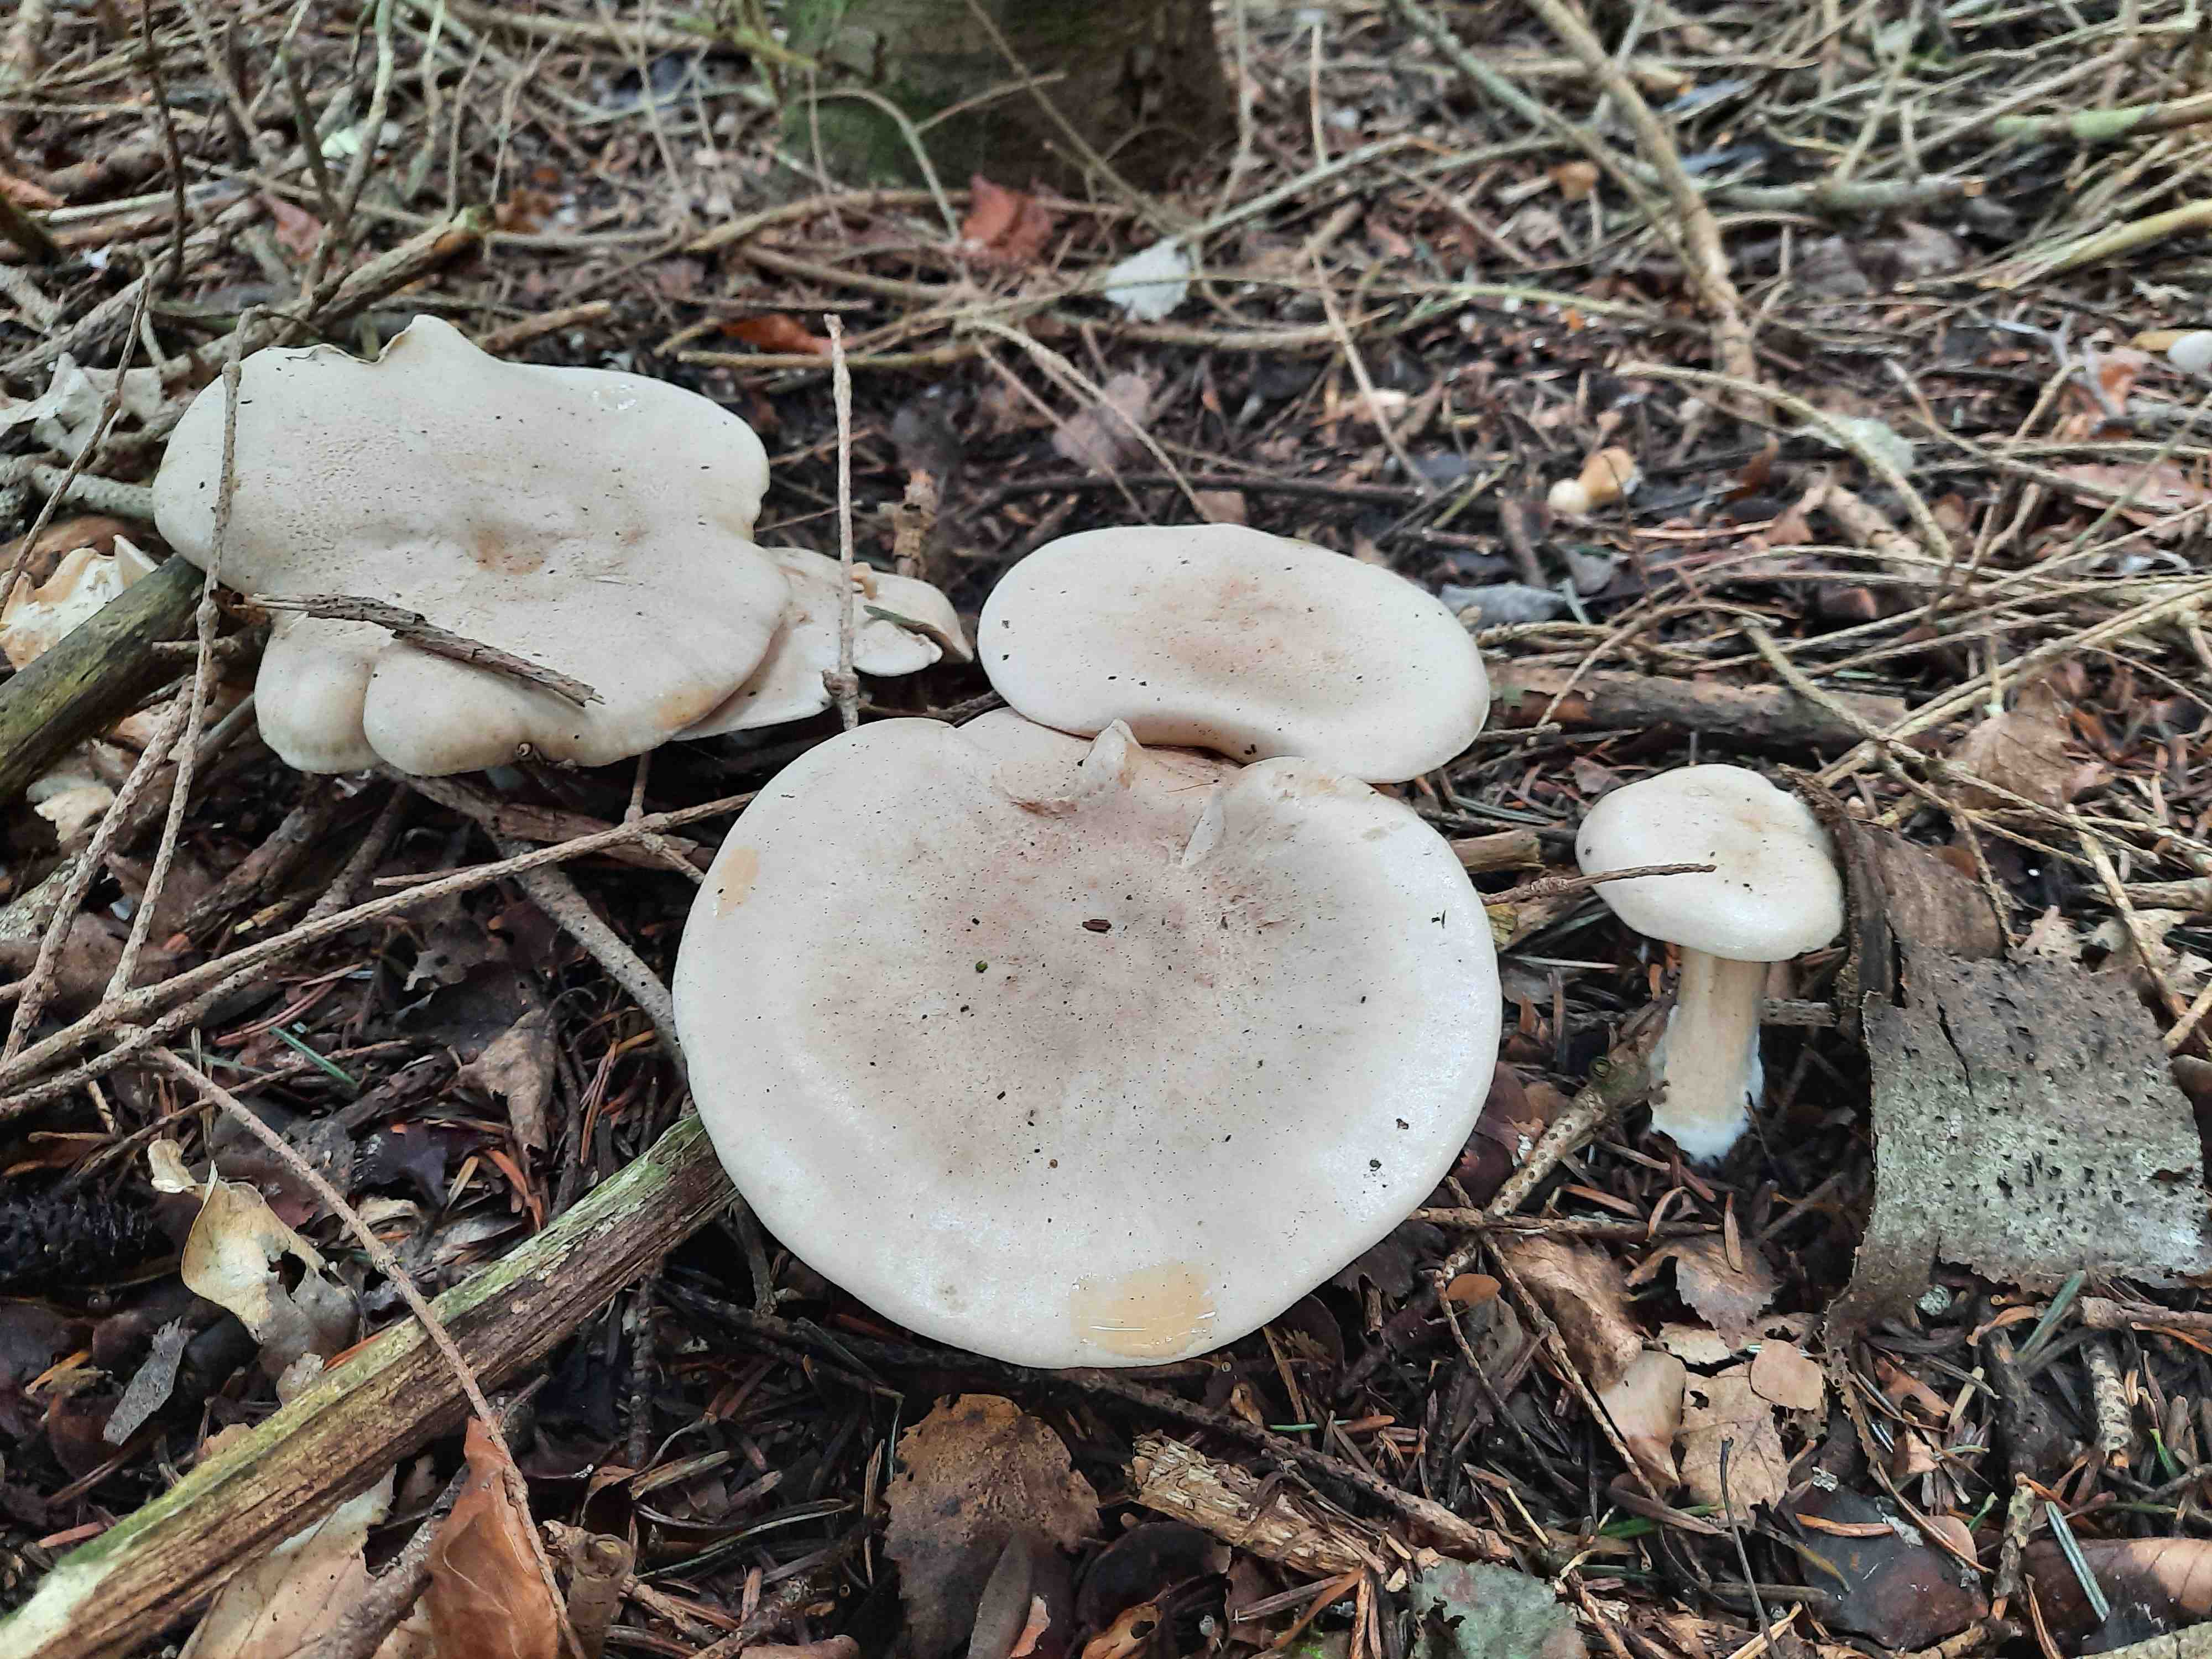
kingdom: Fungi
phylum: Basidiomycota
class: Agaricomycetes
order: Agaricales
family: Pseudoclitocybaceae
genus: Clitopaxillus
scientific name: Clitopaxillus fibulatus
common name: bestøvlet tragthat
